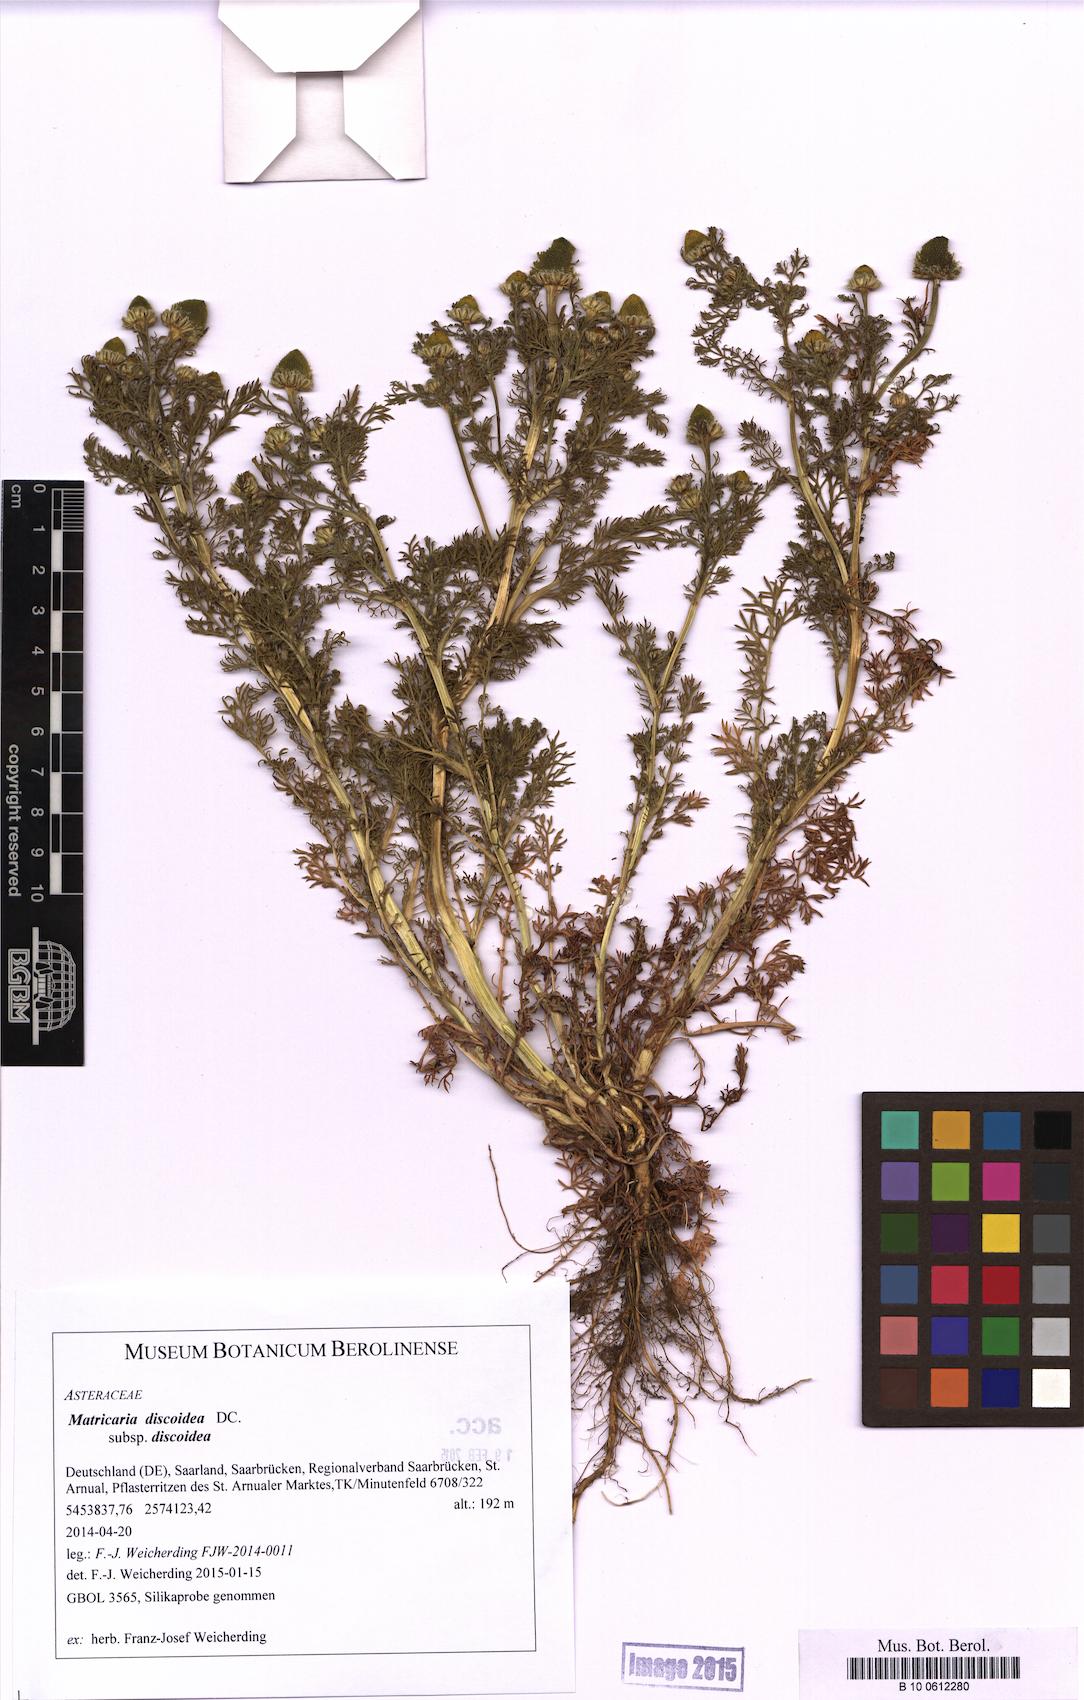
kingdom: Plantae
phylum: Tracheophyta
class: Magnoliopsida
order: Asterales
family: Asteraceae
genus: Matricaria
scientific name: Matricaria discoidea
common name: Disc mayweed
